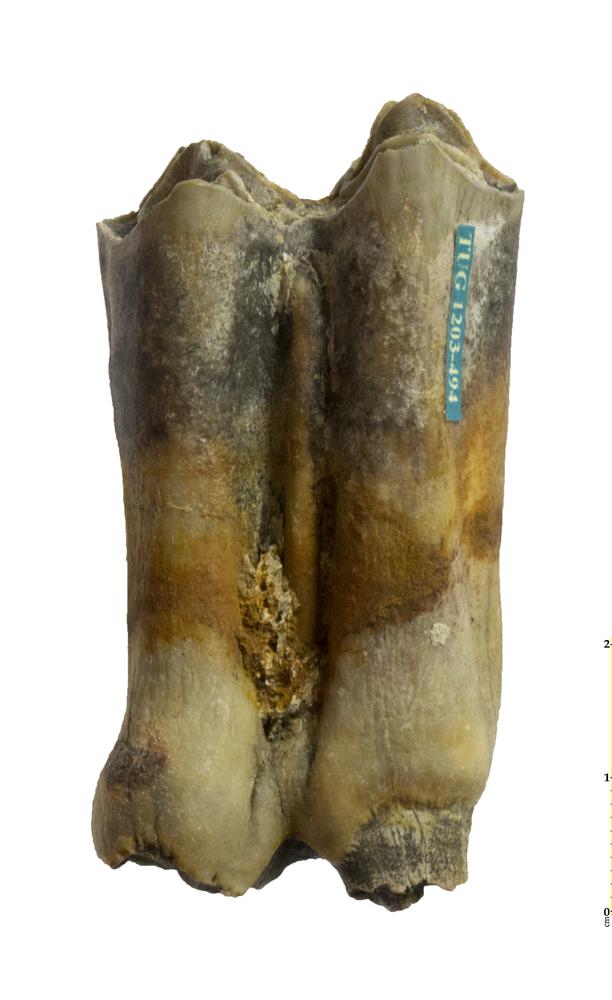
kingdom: Animalia
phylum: Chordata
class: Mammalia
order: Artiodactyla
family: Bovidae
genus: Bos
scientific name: Bos
